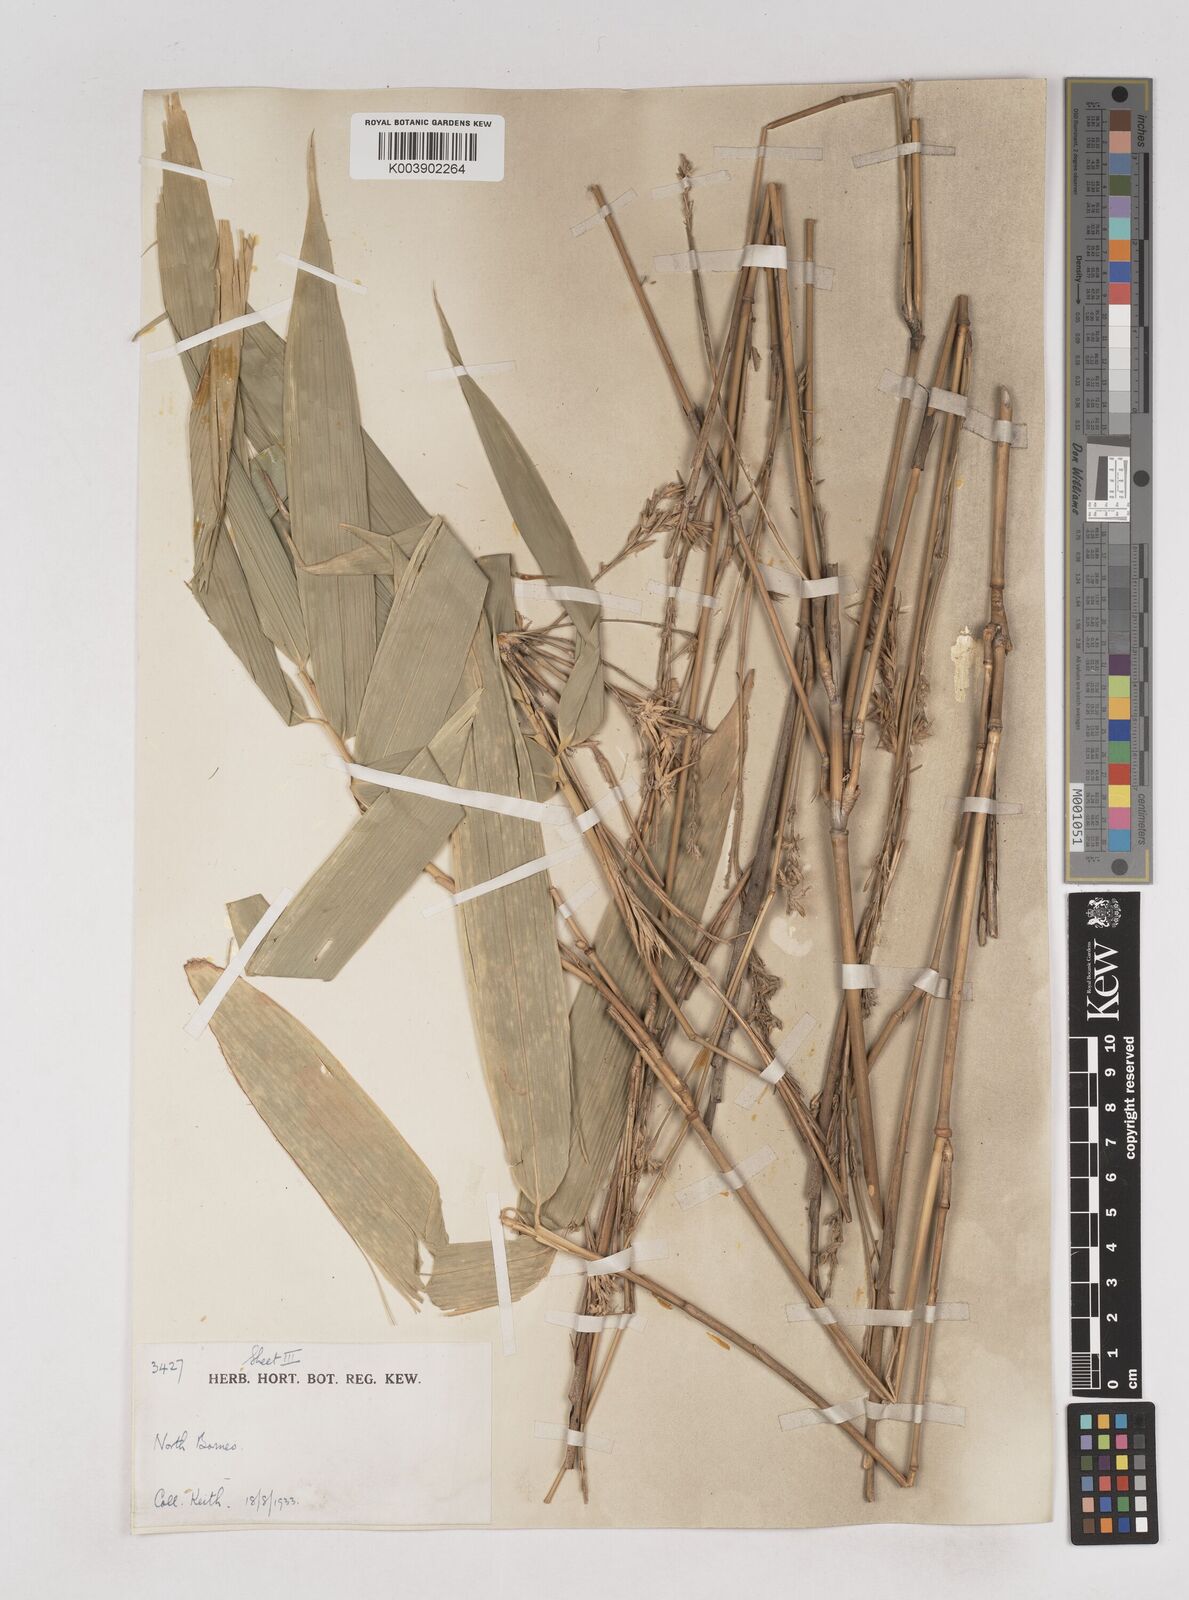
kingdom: Plantae
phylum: Tracheophyta
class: Liliopsida
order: Poales
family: Poaceae
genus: Schizostachyum
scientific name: Schizostachyum lima
